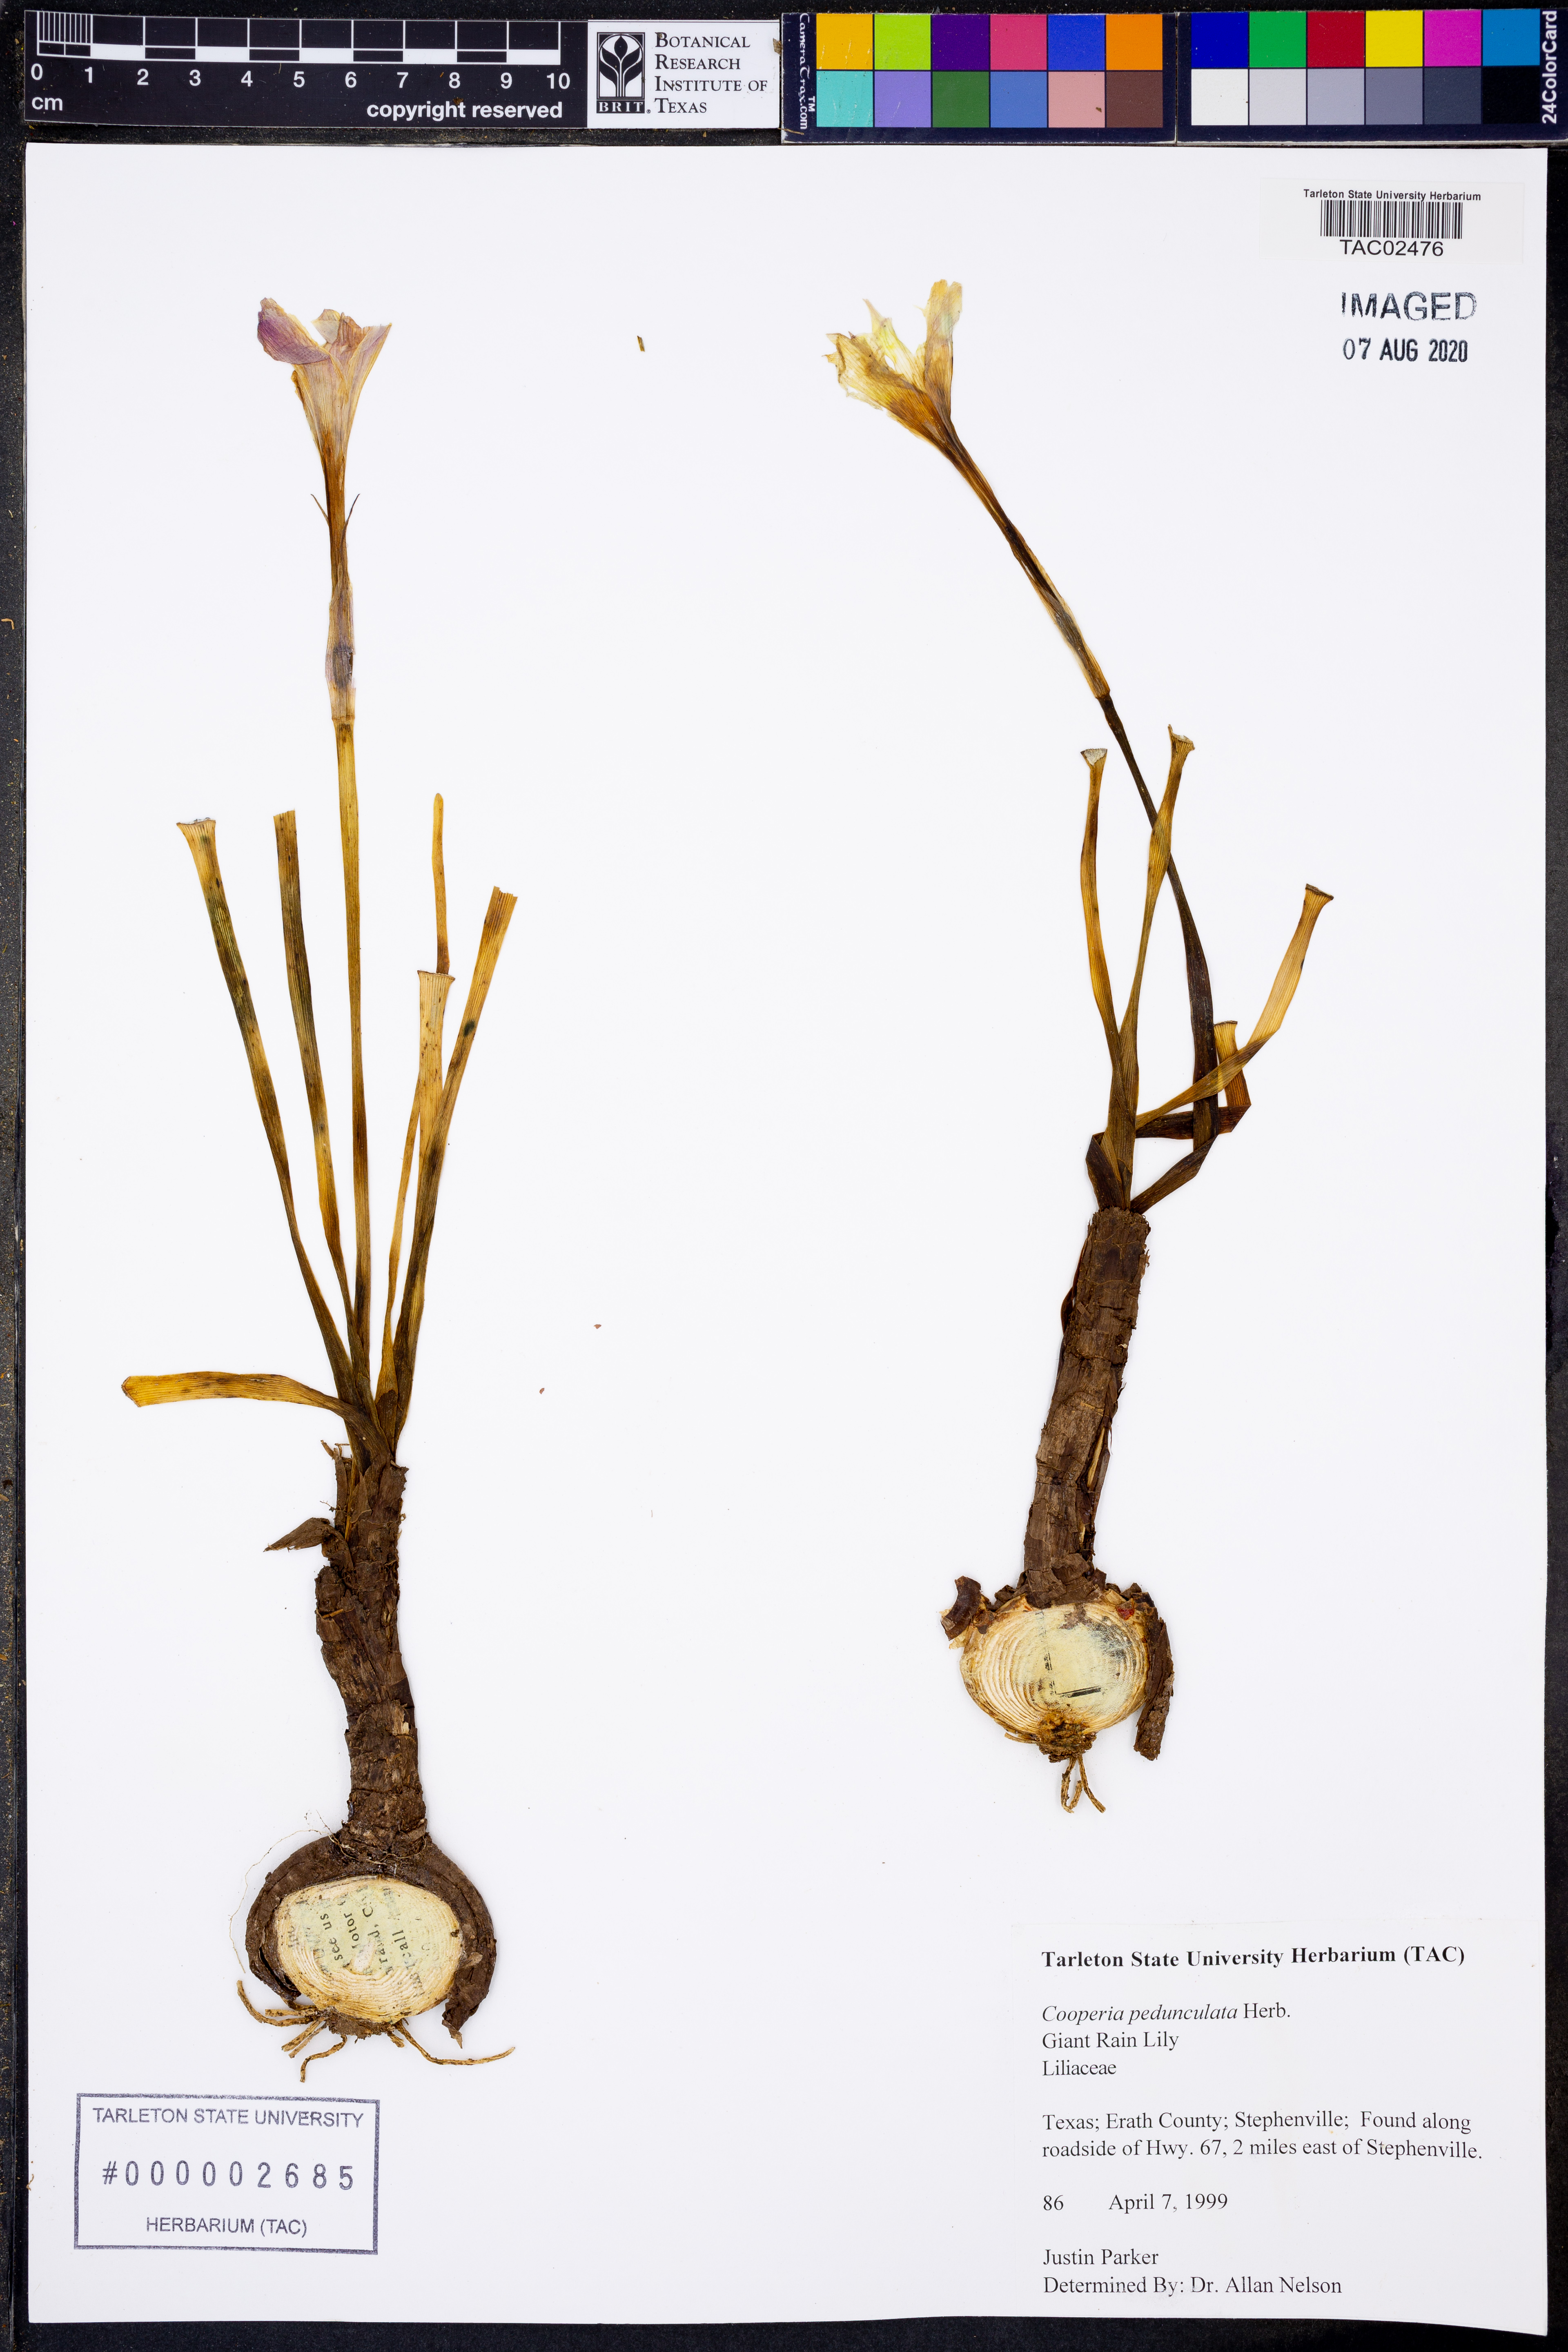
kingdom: Plantae
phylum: Tracheophyta
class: Liliopsida
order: Asparagales
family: Amaryllidaceae
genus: Zephyranthes
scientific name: Zephyranthes drummondii
